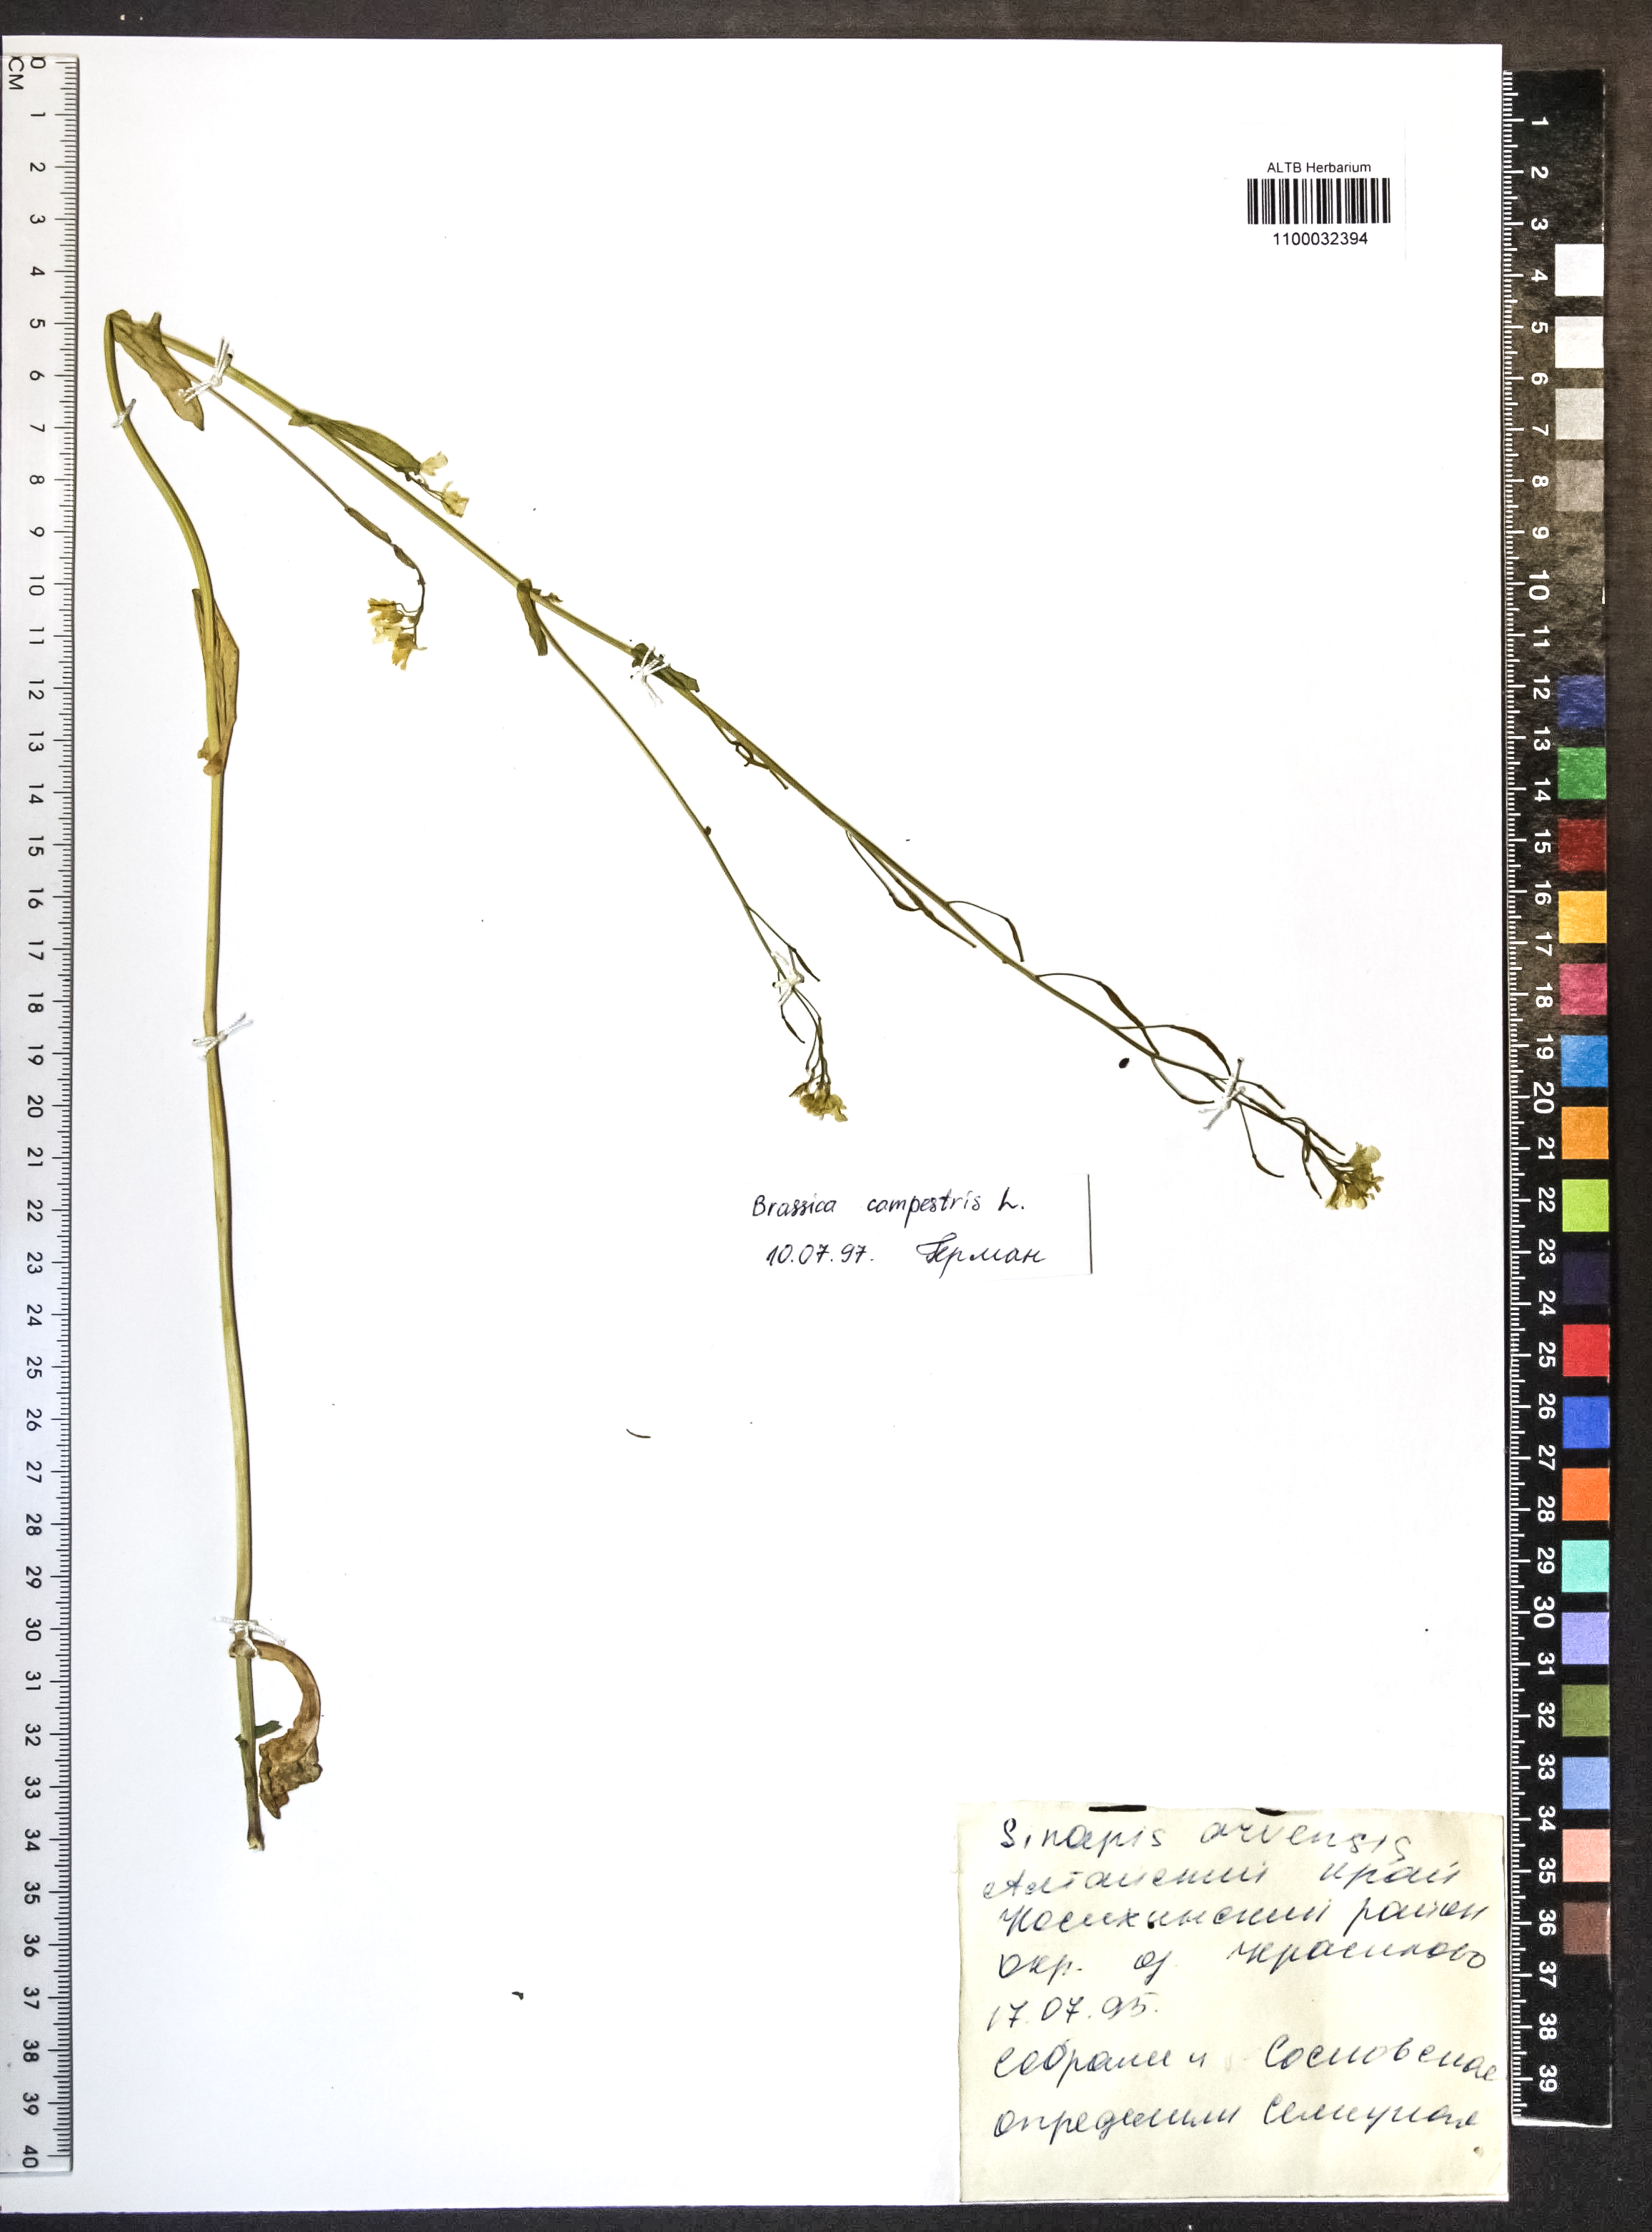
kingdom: Plantae
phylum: Tracheophyta
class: Magnoliopsida
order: Brassicales
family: Brassicaceae
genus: Brassica
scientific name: Brassica rapa
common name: Field mustard
